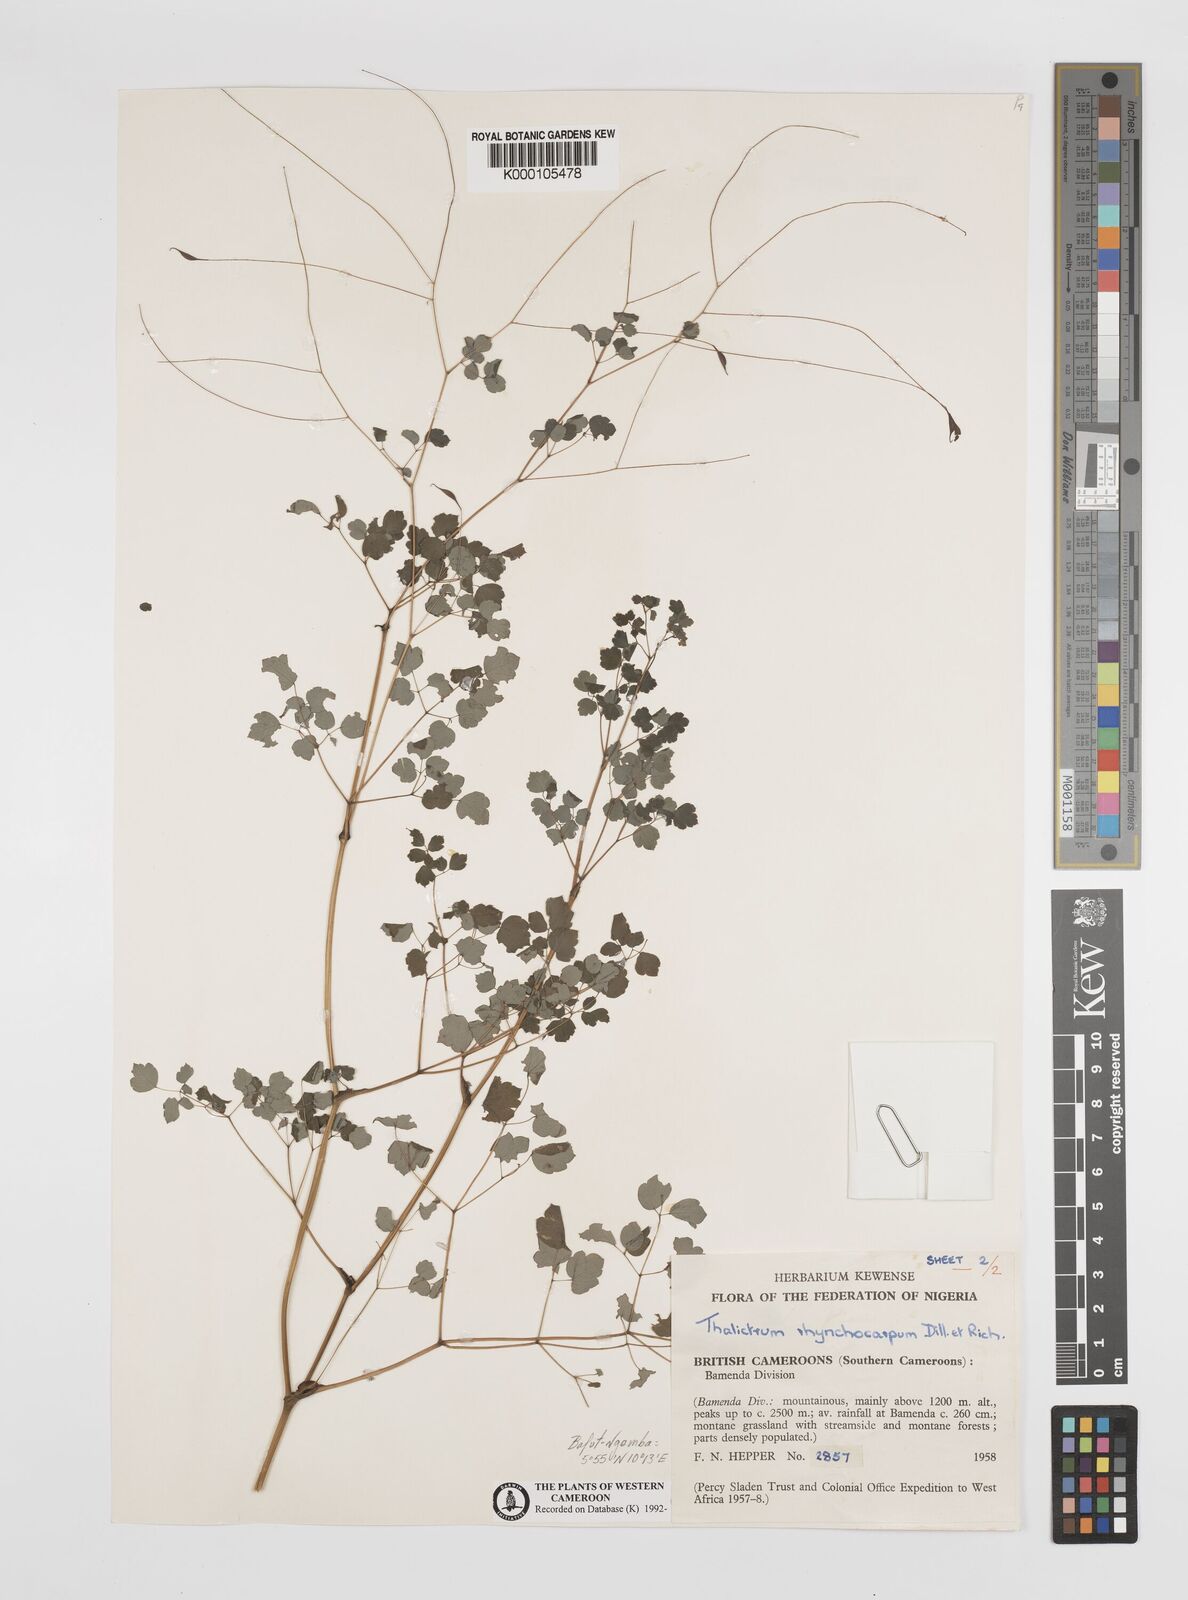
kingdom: Plantae
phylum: Tracheophyta
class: Magnoliopsida
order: Ranunculales
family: Ranunculaceae
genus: Thalictrum
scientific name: Thalictrum
